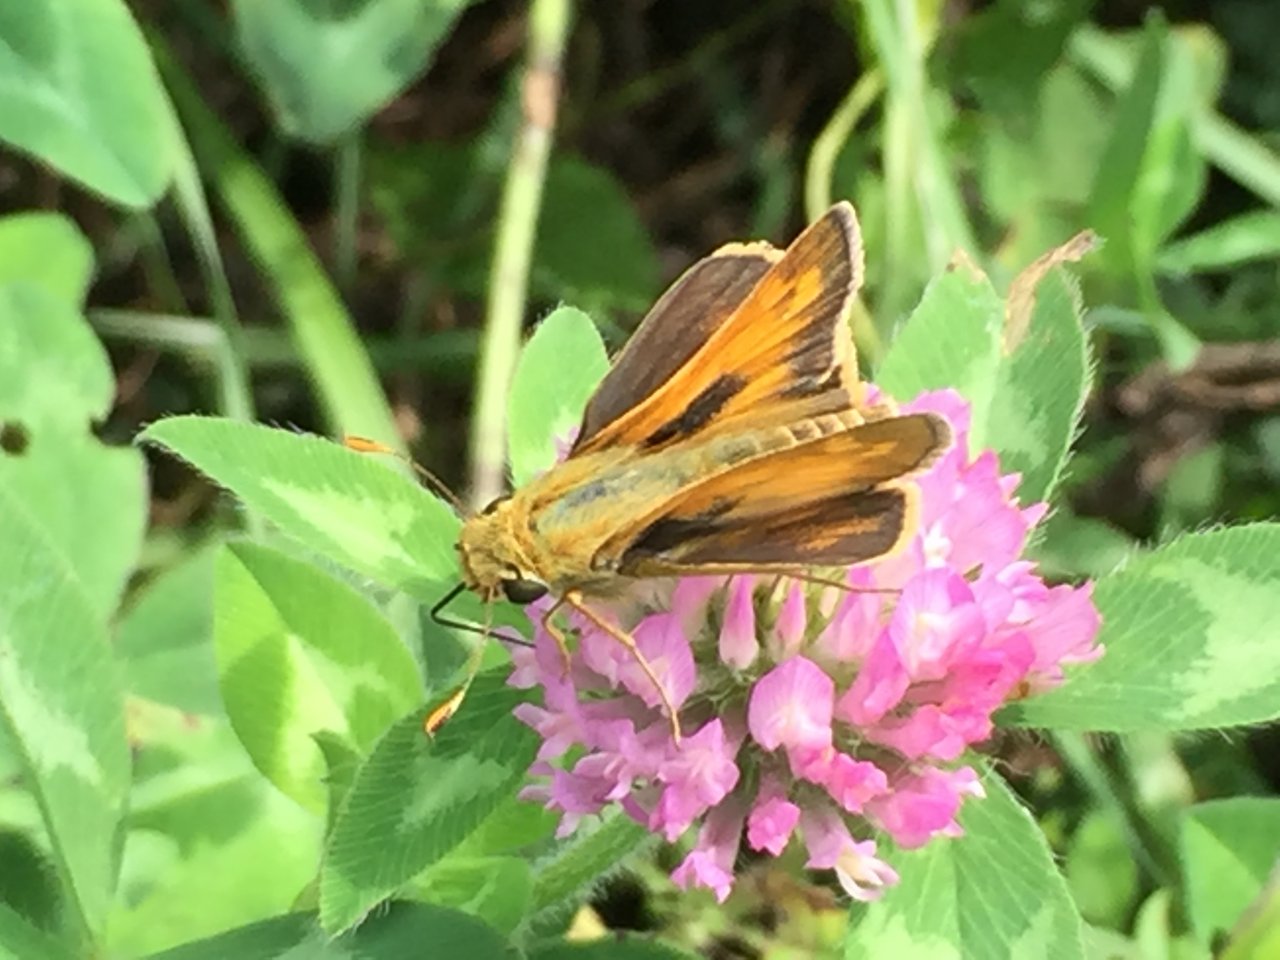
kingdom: Animalia
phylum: Arthropoda
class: Insecta
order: Lepidoptera
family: Hesperiidae
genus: Atalopedes
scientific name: Atalopedes campestris
